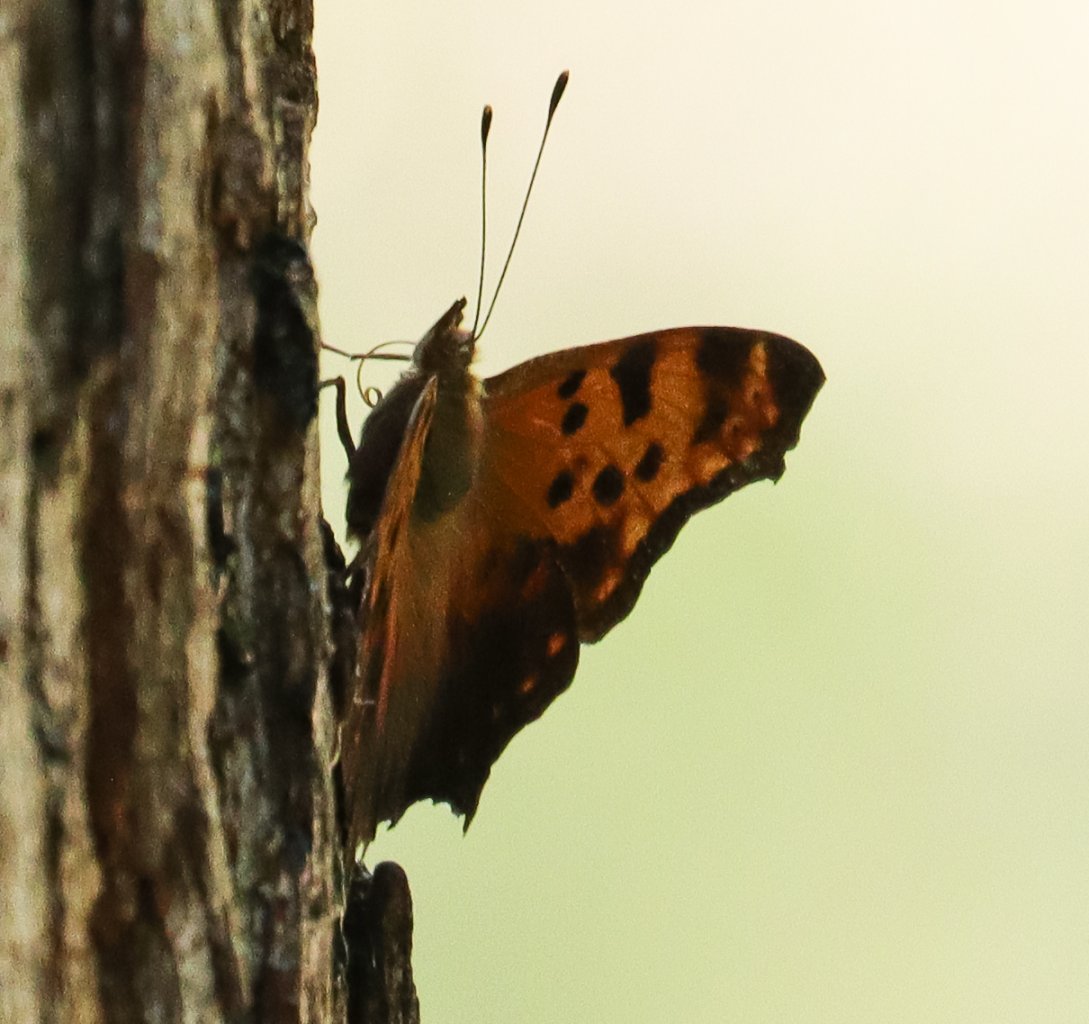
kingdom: Animalia
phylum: Arthropoda
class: Insecta
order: Lepidoptera
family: Nymphalidae
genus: Polygonia
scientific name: Polygonia comma
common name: Eastern Comma
